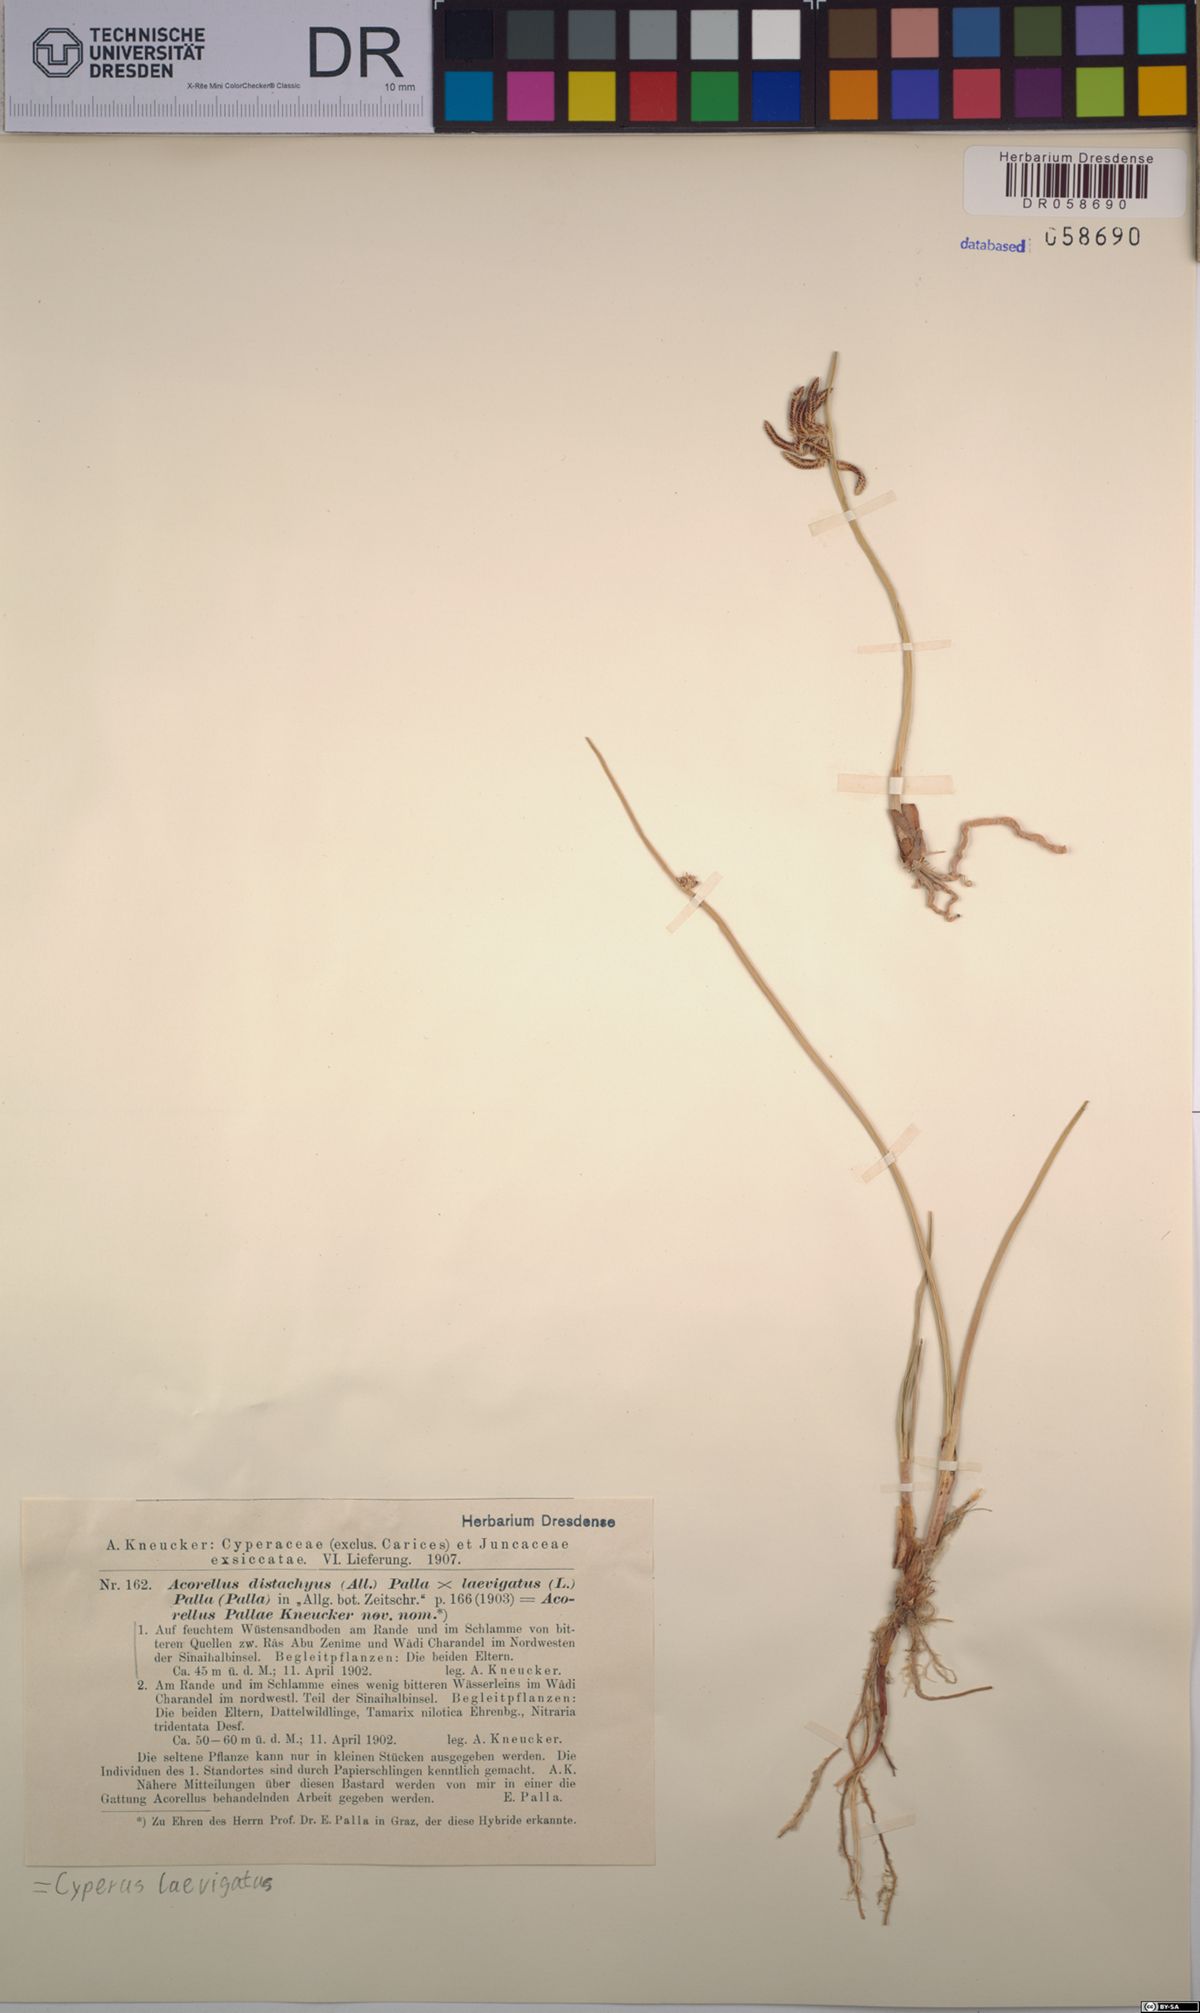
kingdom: Plantae
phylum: Tracheophyta
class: Liliopsida
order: Poales
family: Cyperaceae
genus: Cyperus
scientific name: Cyperus laevigatus
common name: Smooth flat sedge
